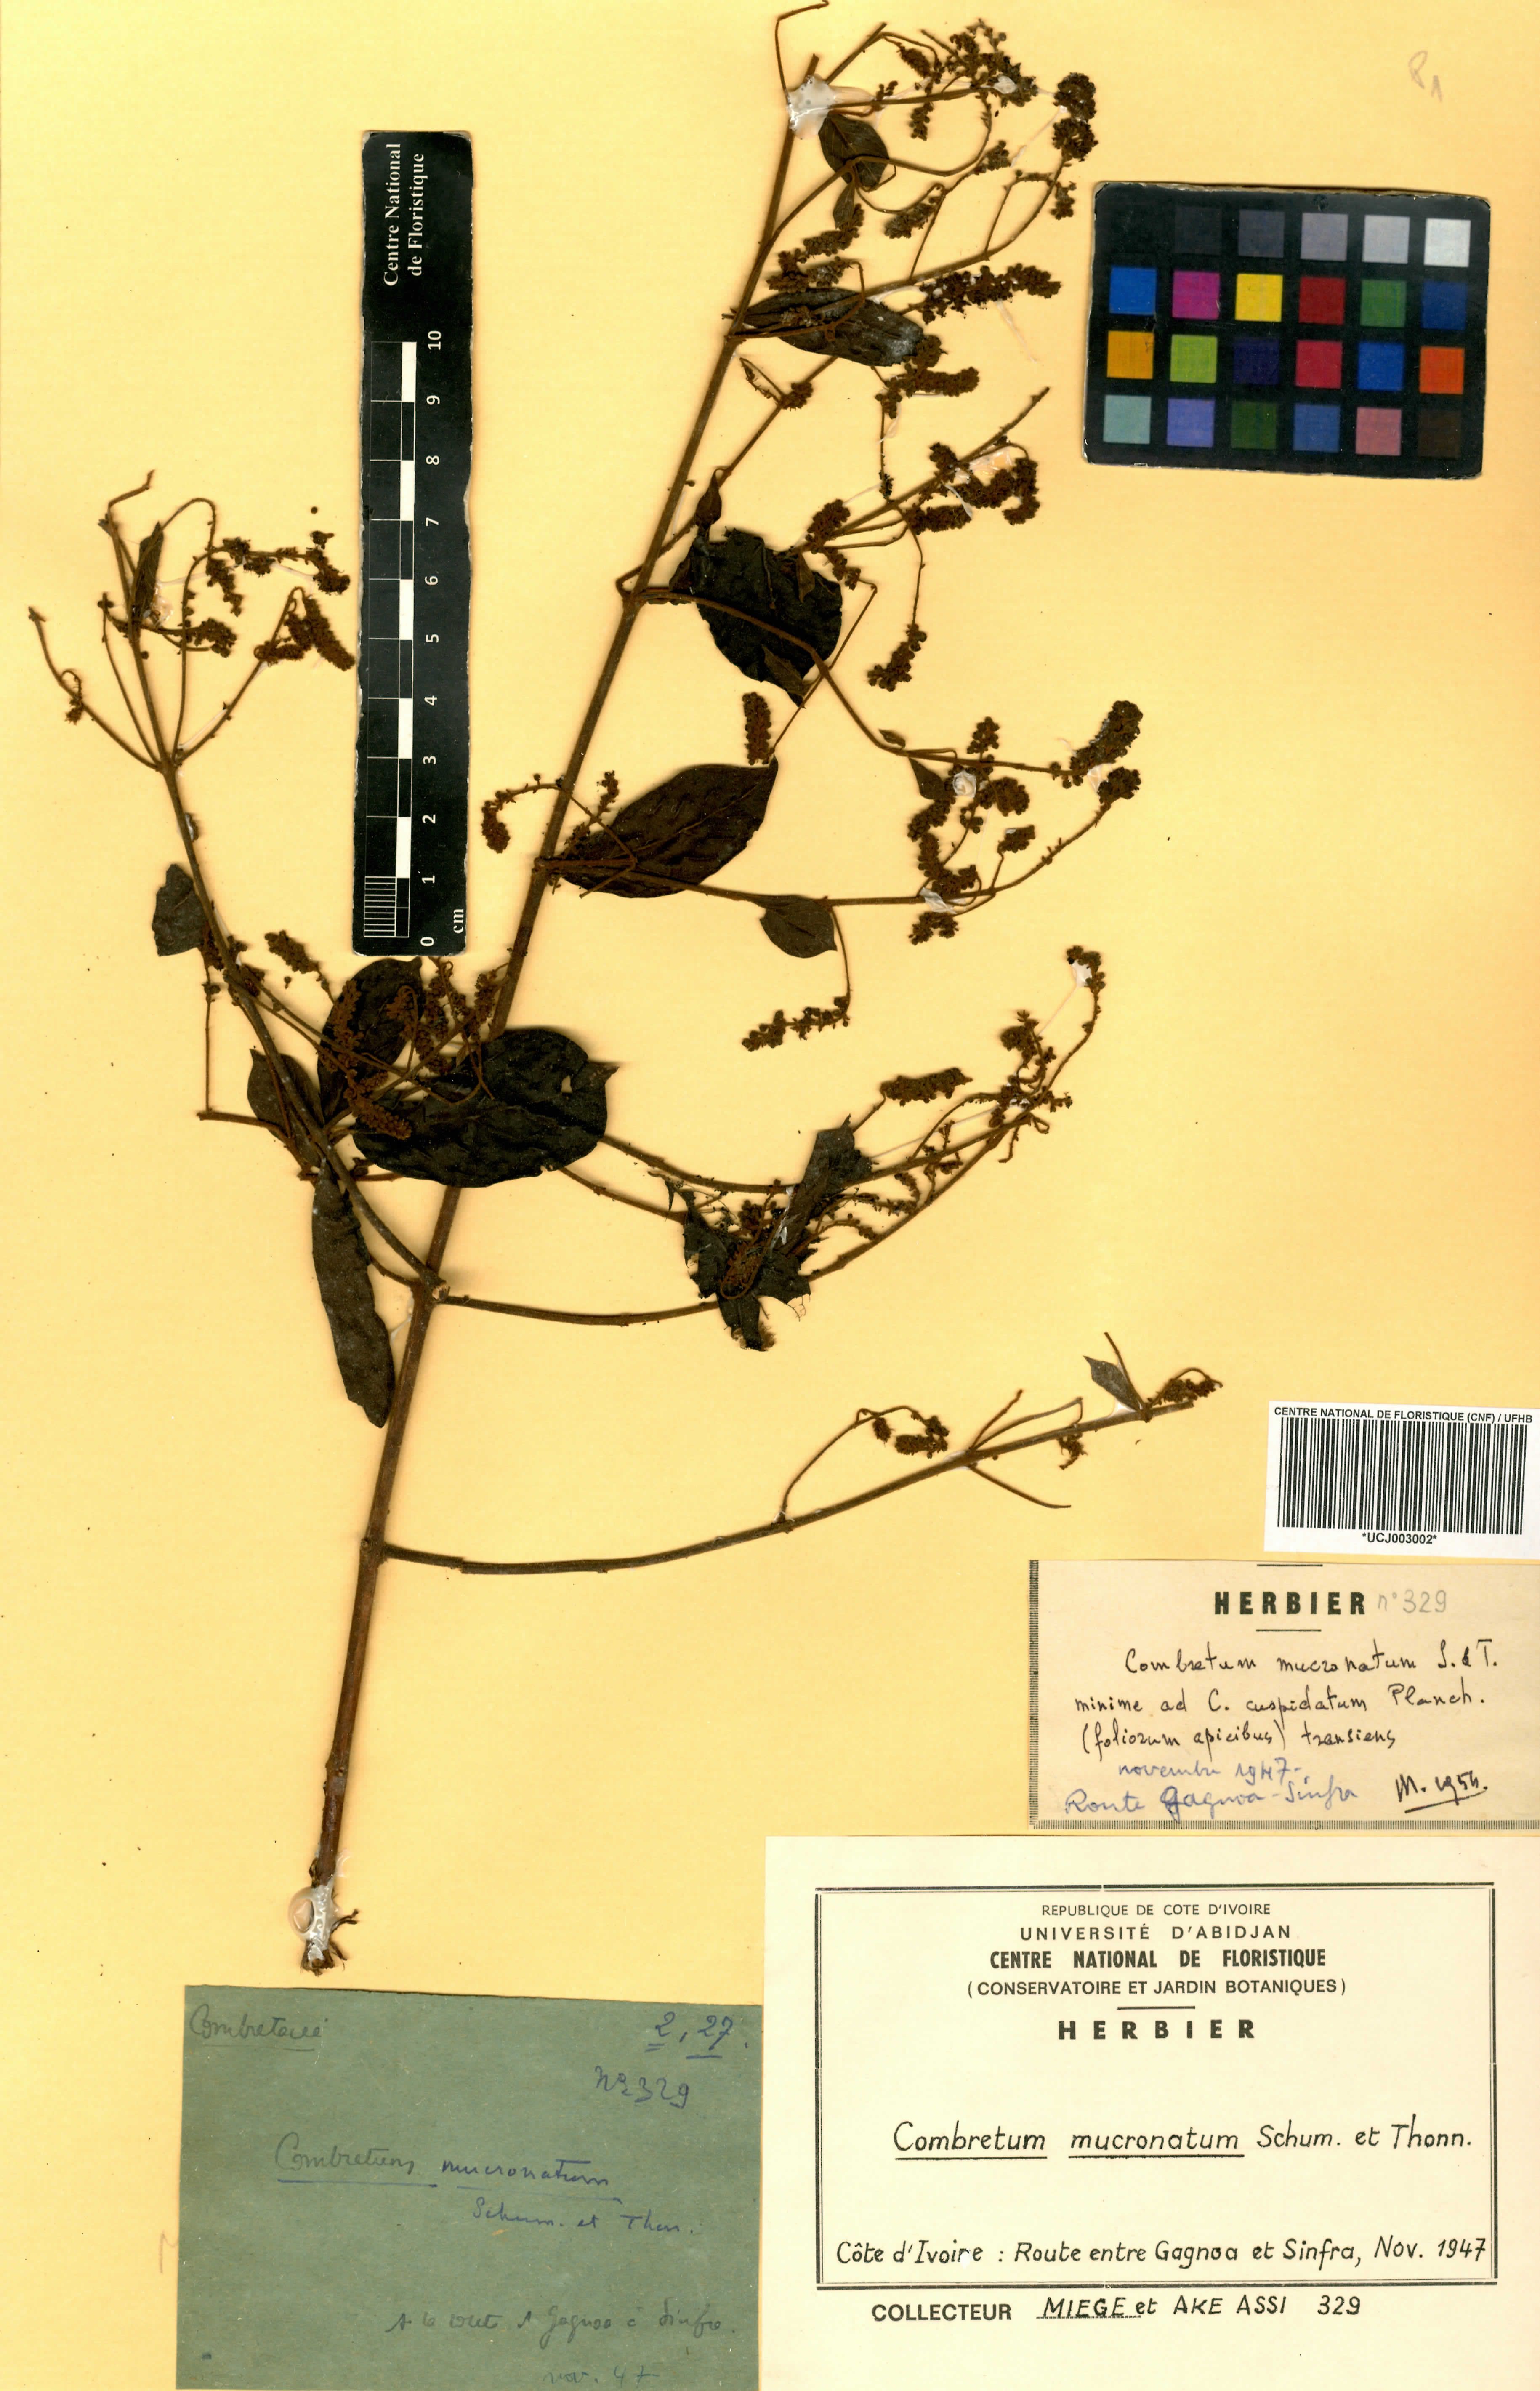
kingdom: Plantae
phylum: Tracheophyta
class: Magnoliopsida
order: Myrtales
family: Combretaceae
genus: Combretum
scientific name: Combretum mucronatum
